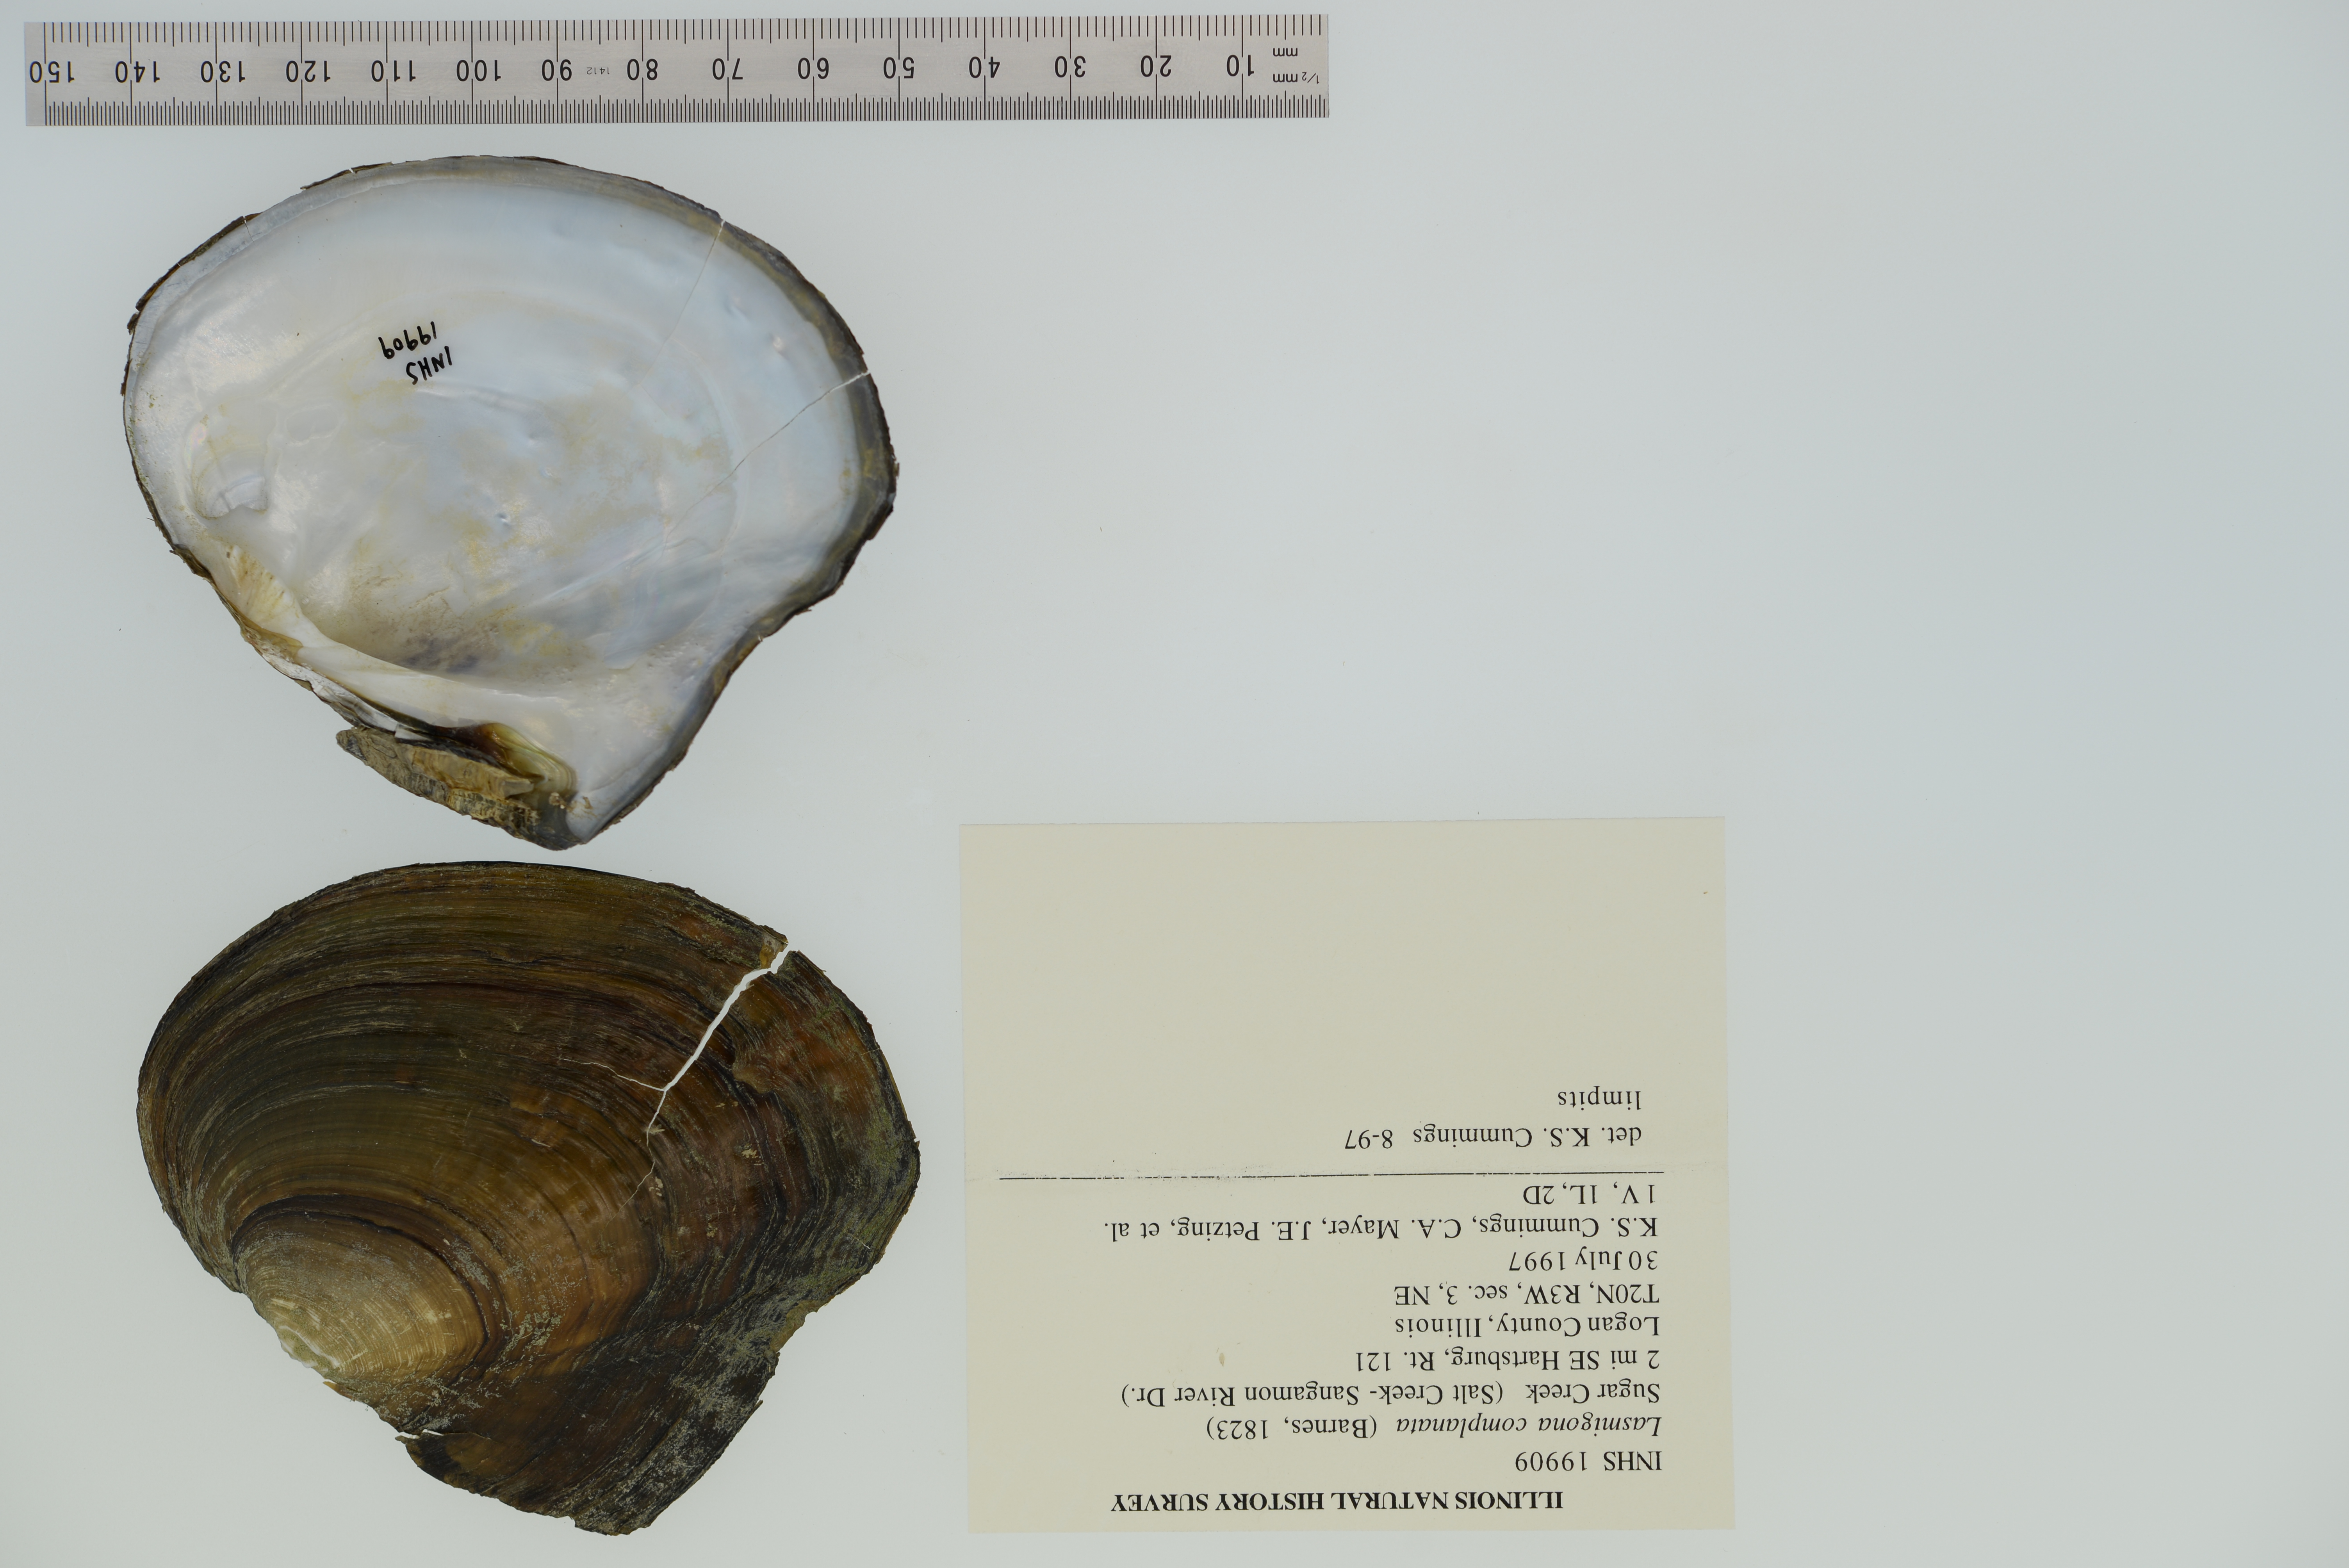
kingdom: Animalia
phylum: Mollusca
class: Bivalvia
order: Unionida
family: Unionidae
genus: Lasmigona
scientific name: Lasmigona complanata
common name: White heelsplitter
